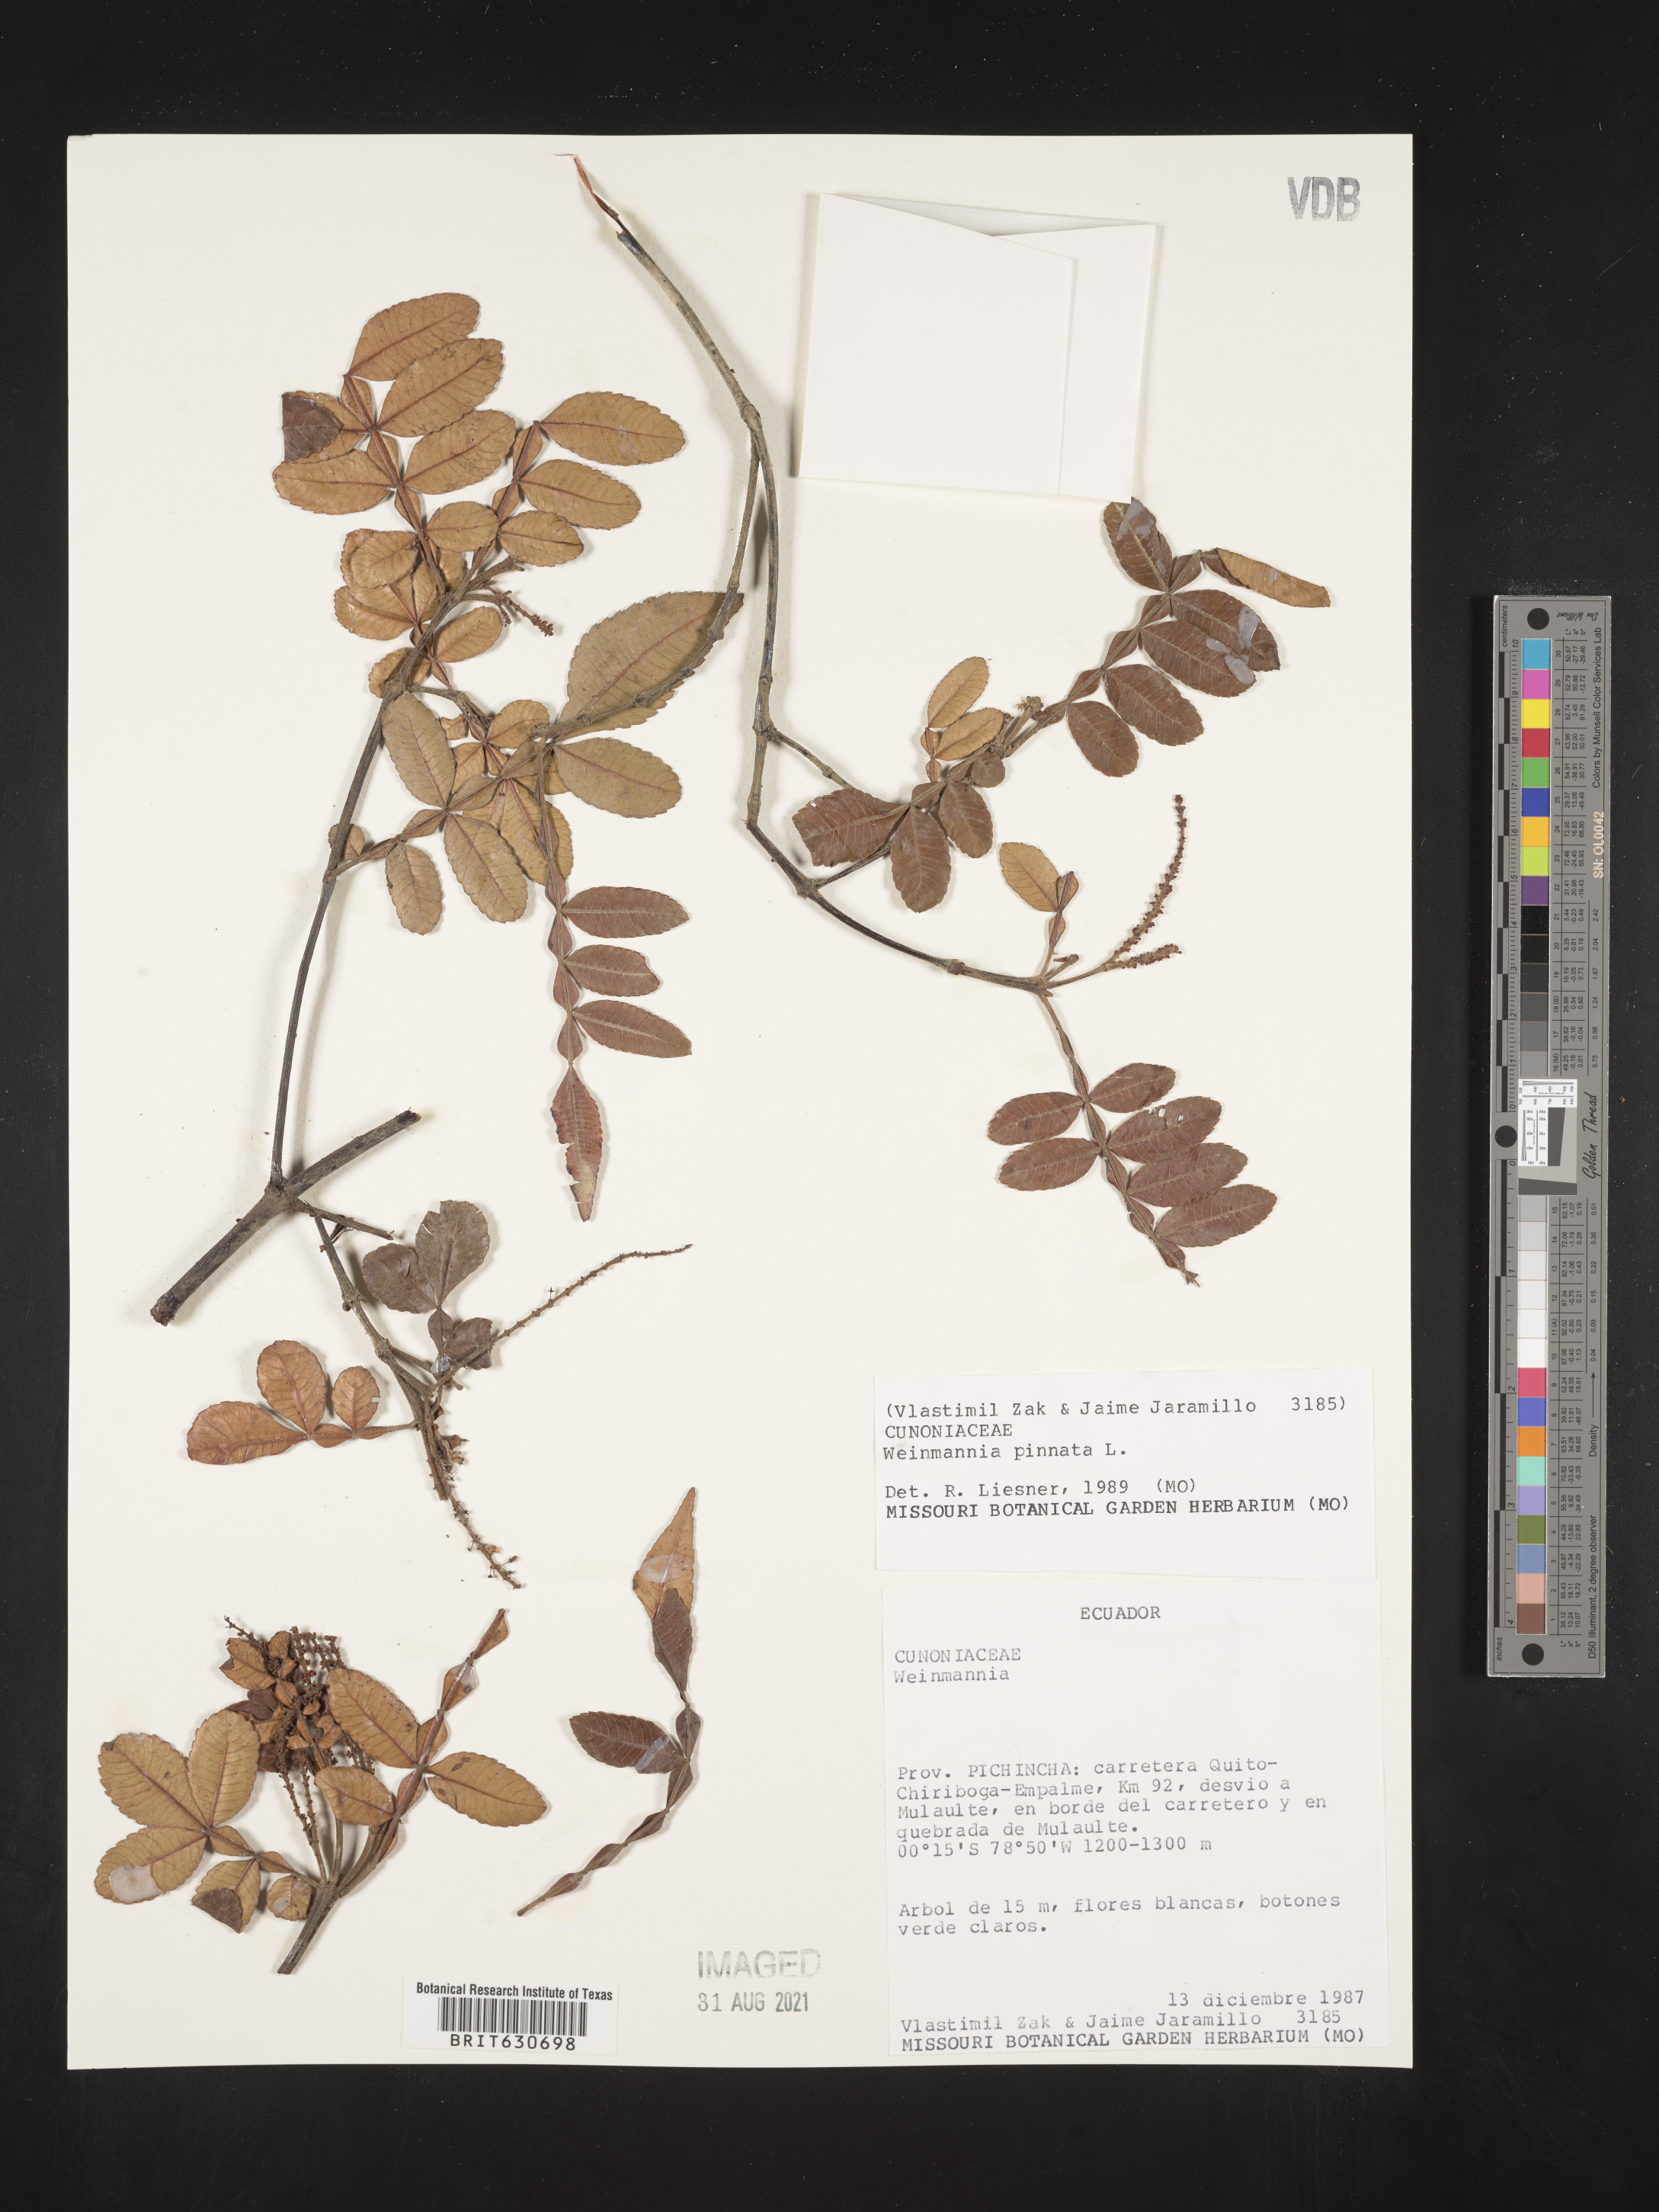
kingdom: Plantae
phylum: Tracheophyta
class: Magnoliopsida
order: Oxalidales
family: Cunoniaceae
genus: Weinmannia
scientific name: Weinmannia cinerea
